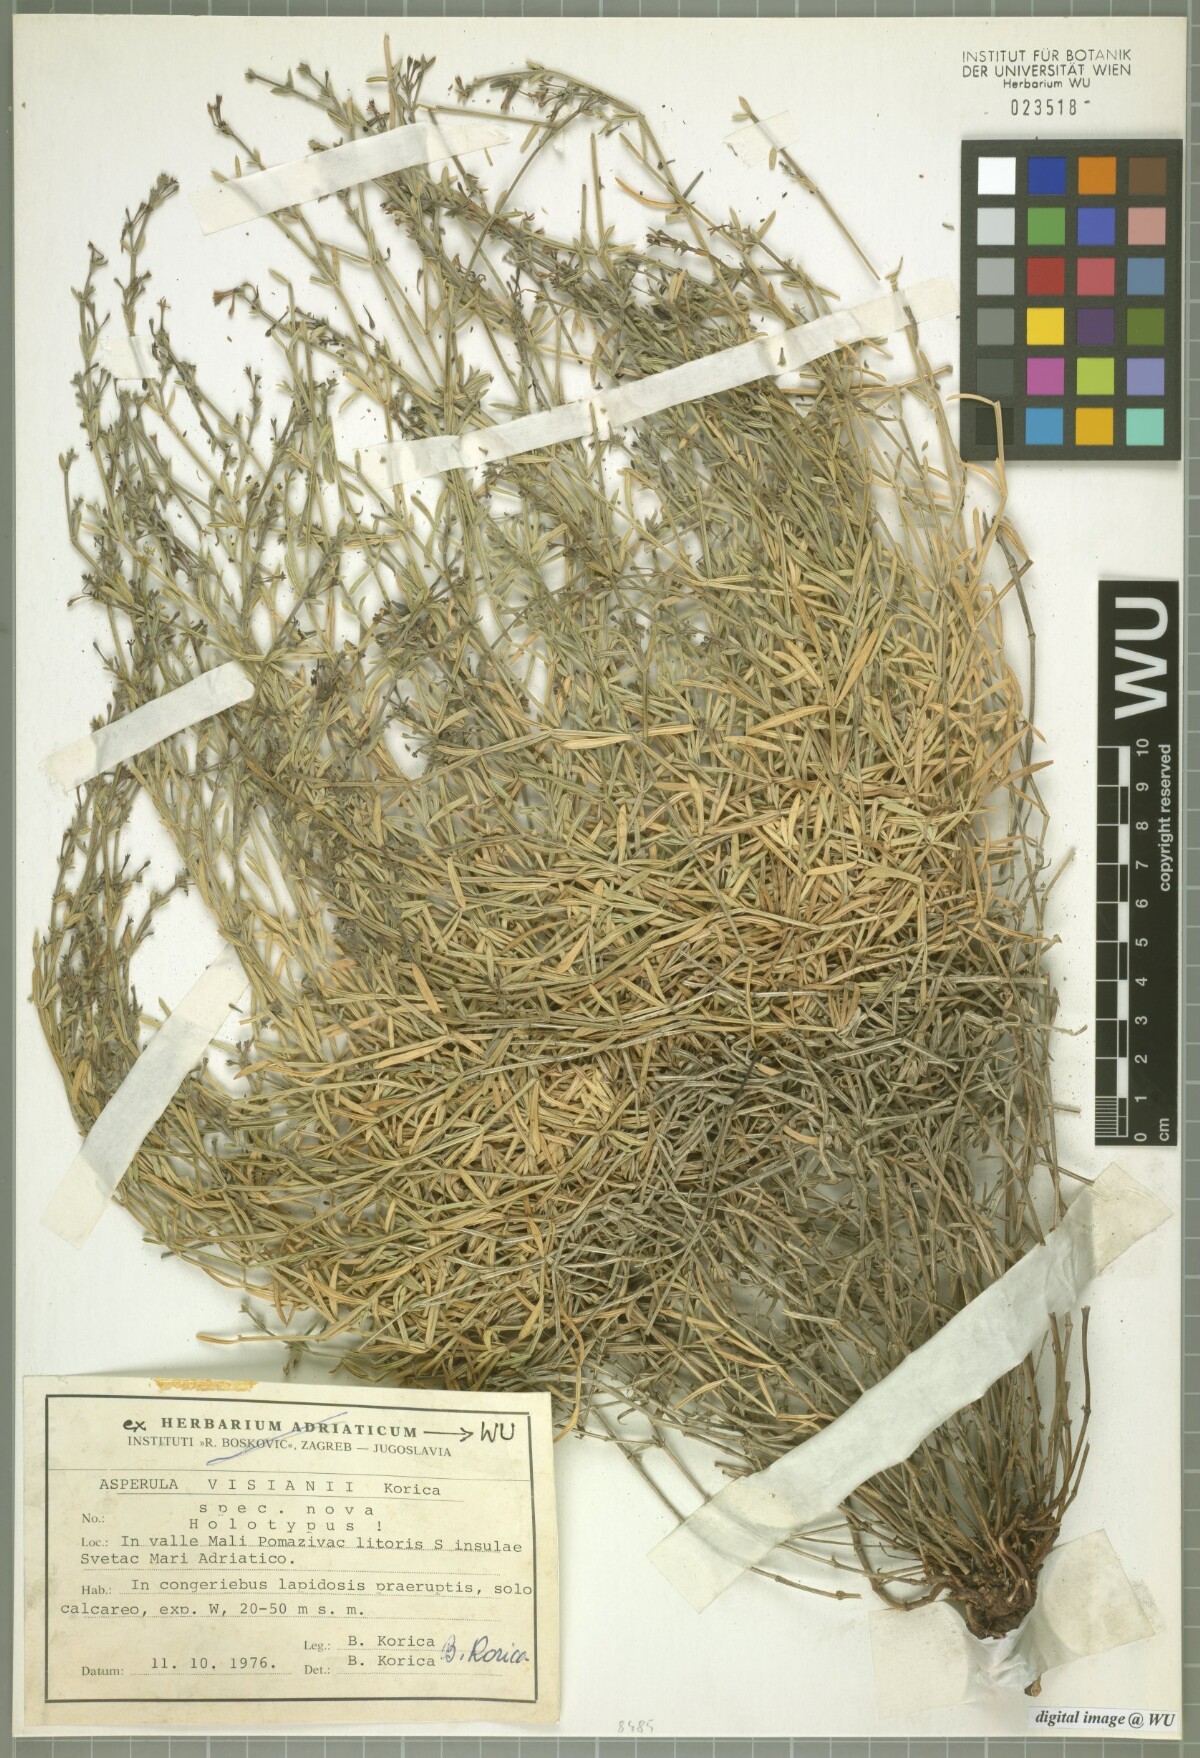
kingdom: Plantae
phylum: Tracheophyta
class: Magnoliopsida
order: Gentianales
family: Rubiaceae
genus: Cynanchica
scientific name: Cynanchica visianii
